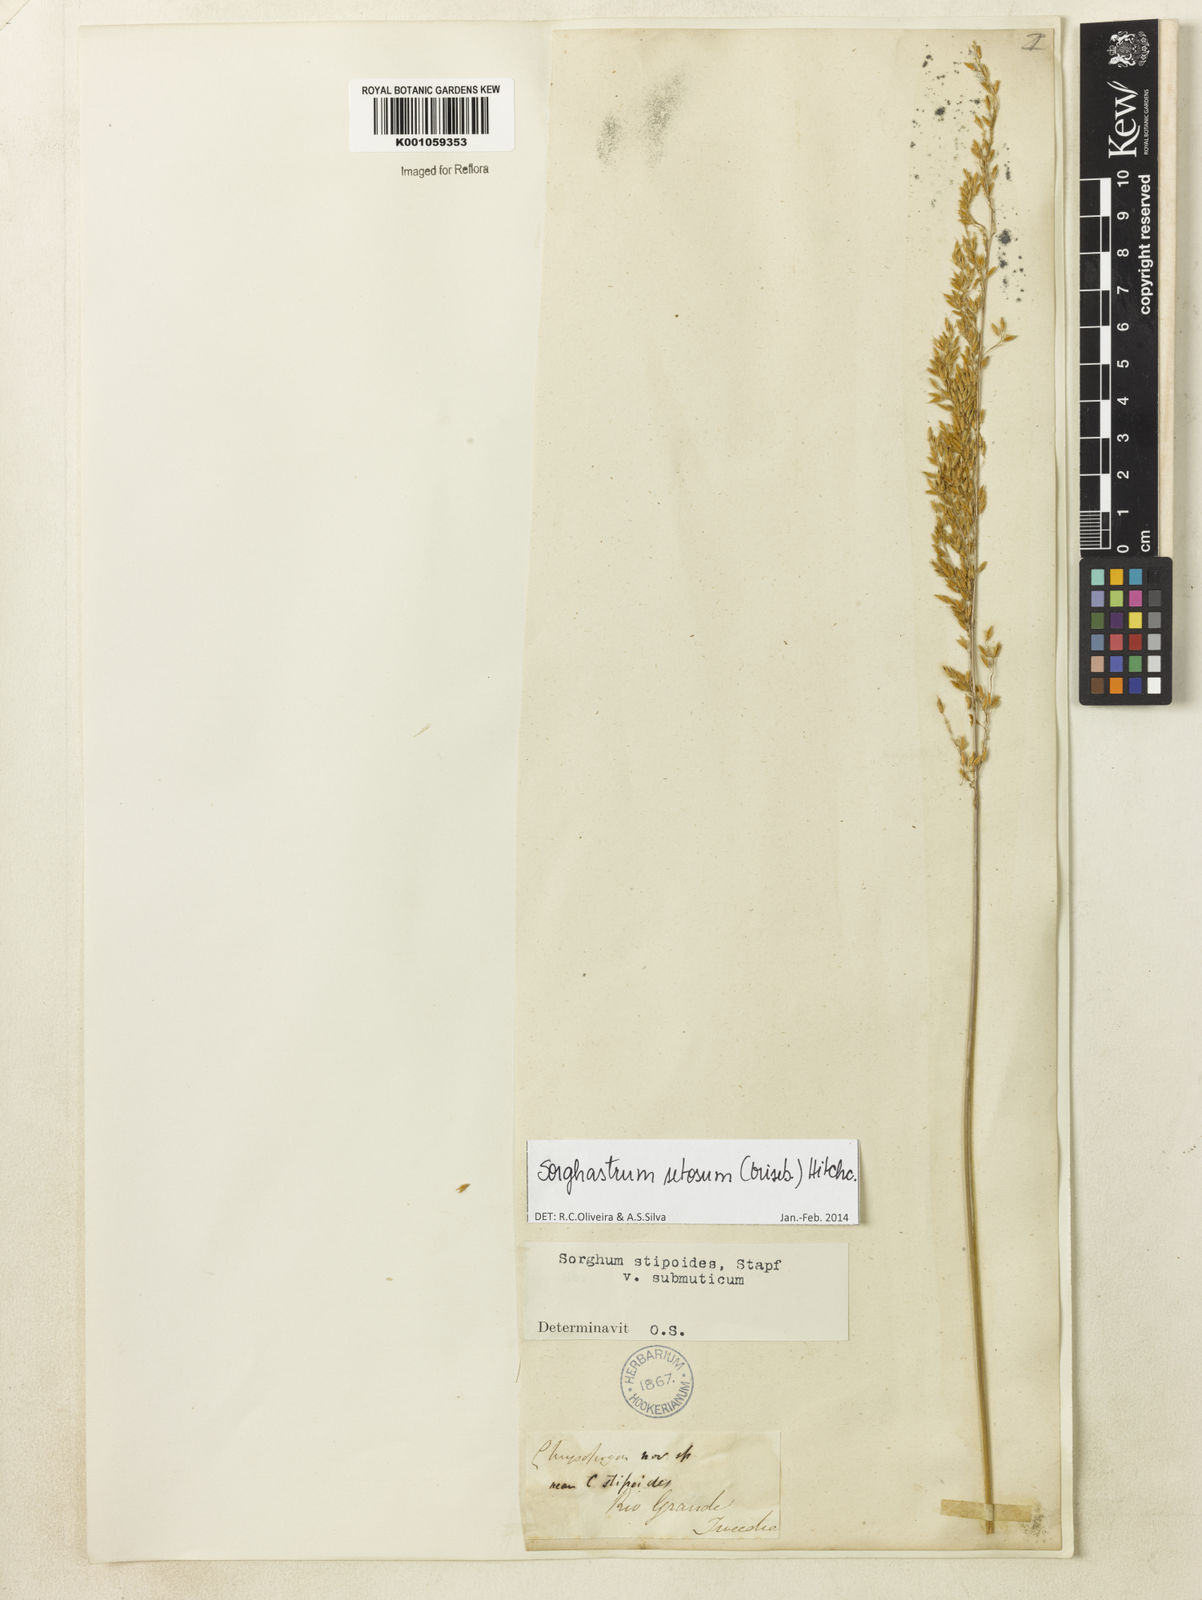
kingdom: Plantae
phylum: Tracheophyta
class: Liliopsida
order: Poales
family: Poaceae
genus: Sorghastrum
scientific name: Sorghastrum setosum
